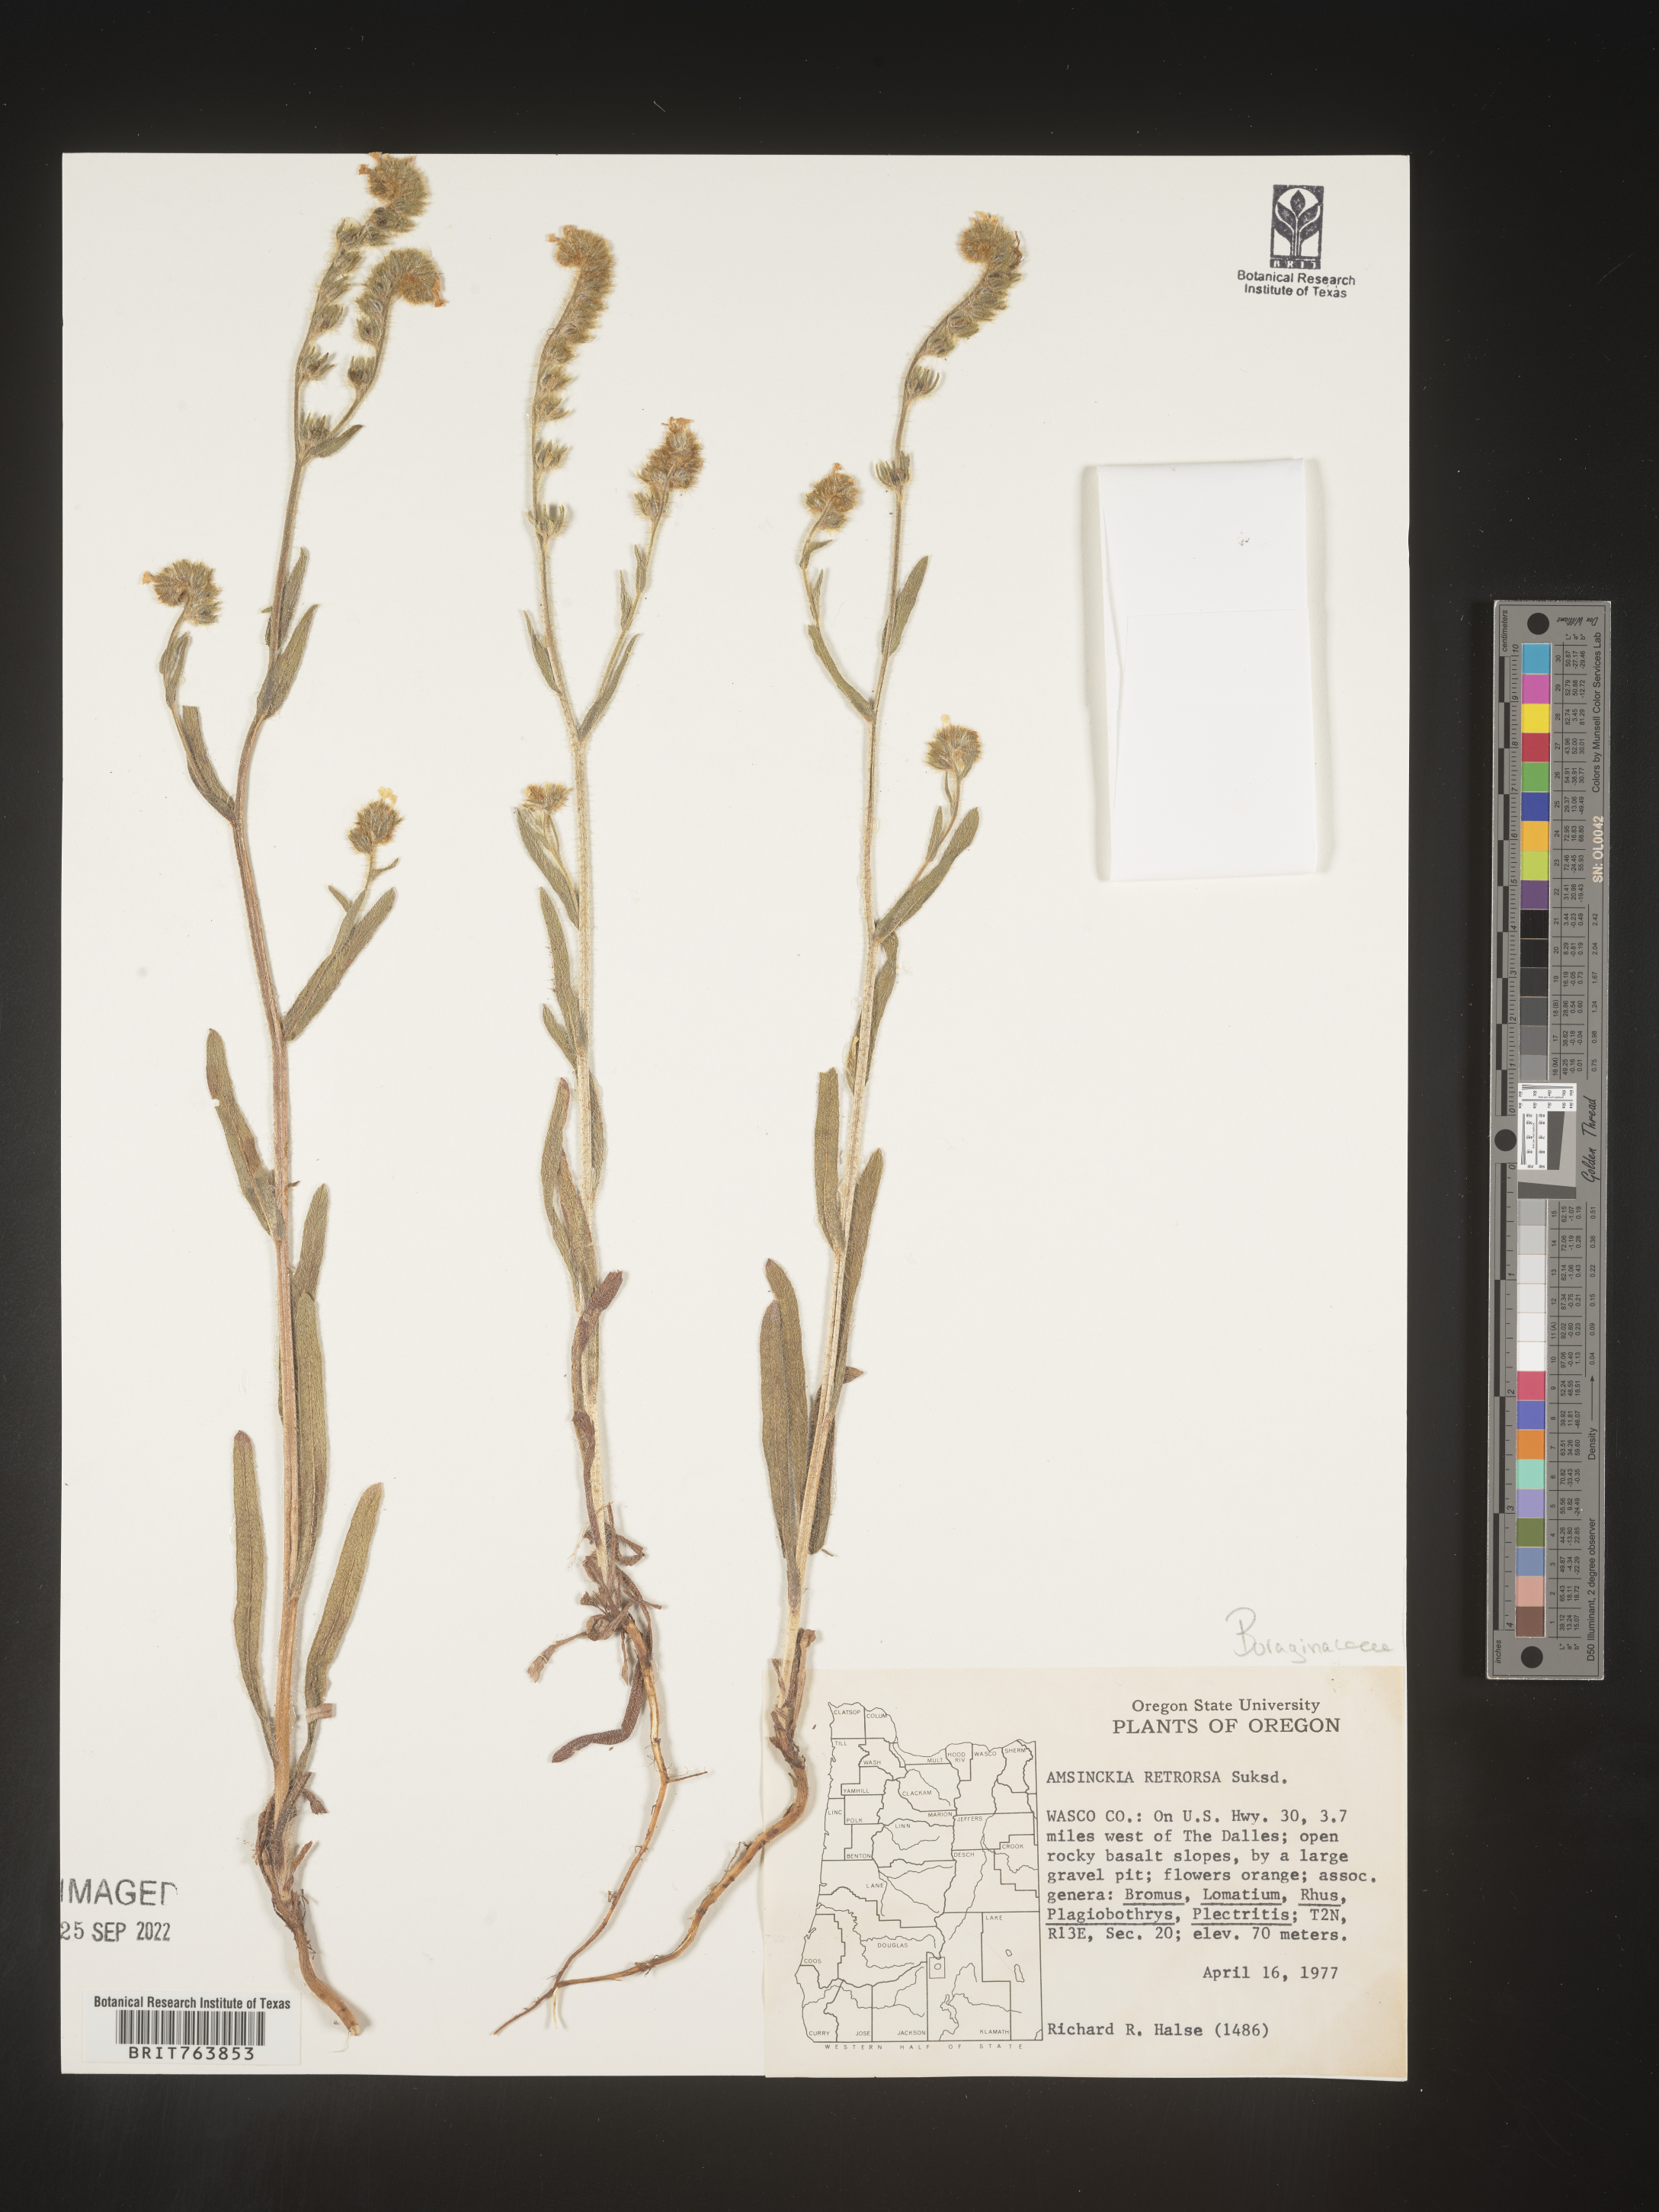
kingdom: Plantae
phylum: Tracheophyta
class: Magnoliopsida
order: Boraginales
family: Boraginaceae
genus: Amsinckia
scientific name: Amsinckia
